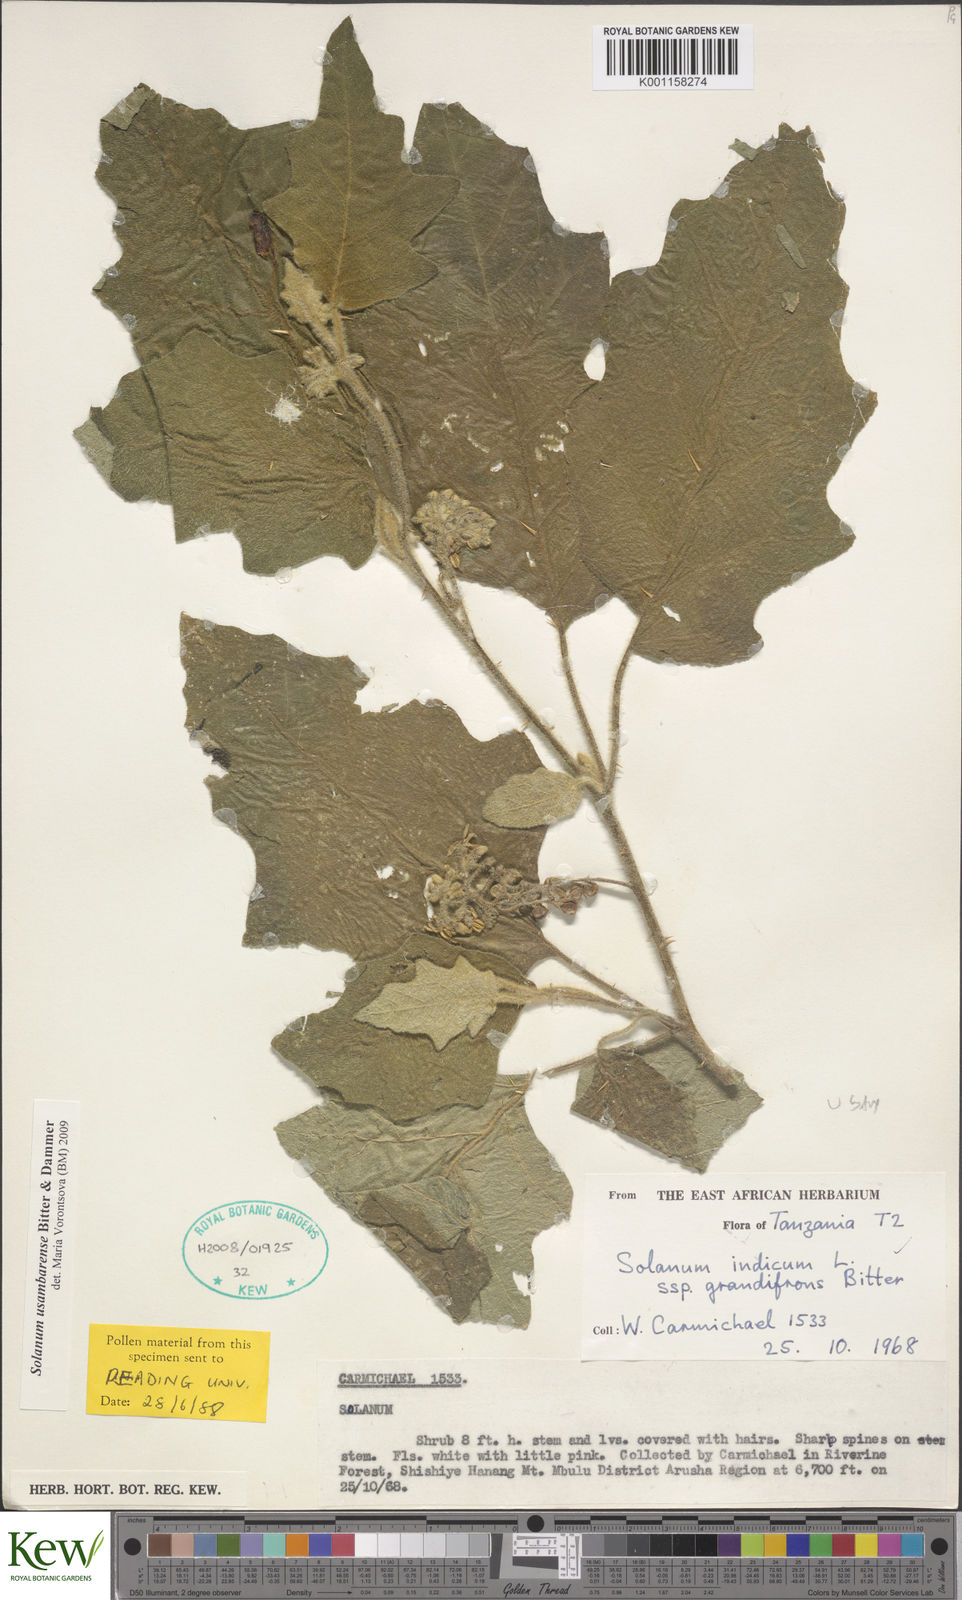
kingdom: Plantae
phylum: Tracheophyta
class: Magnoliopsida
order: Solanales
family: Solanaceae
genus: Solanum
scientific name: Solanum usambarense
